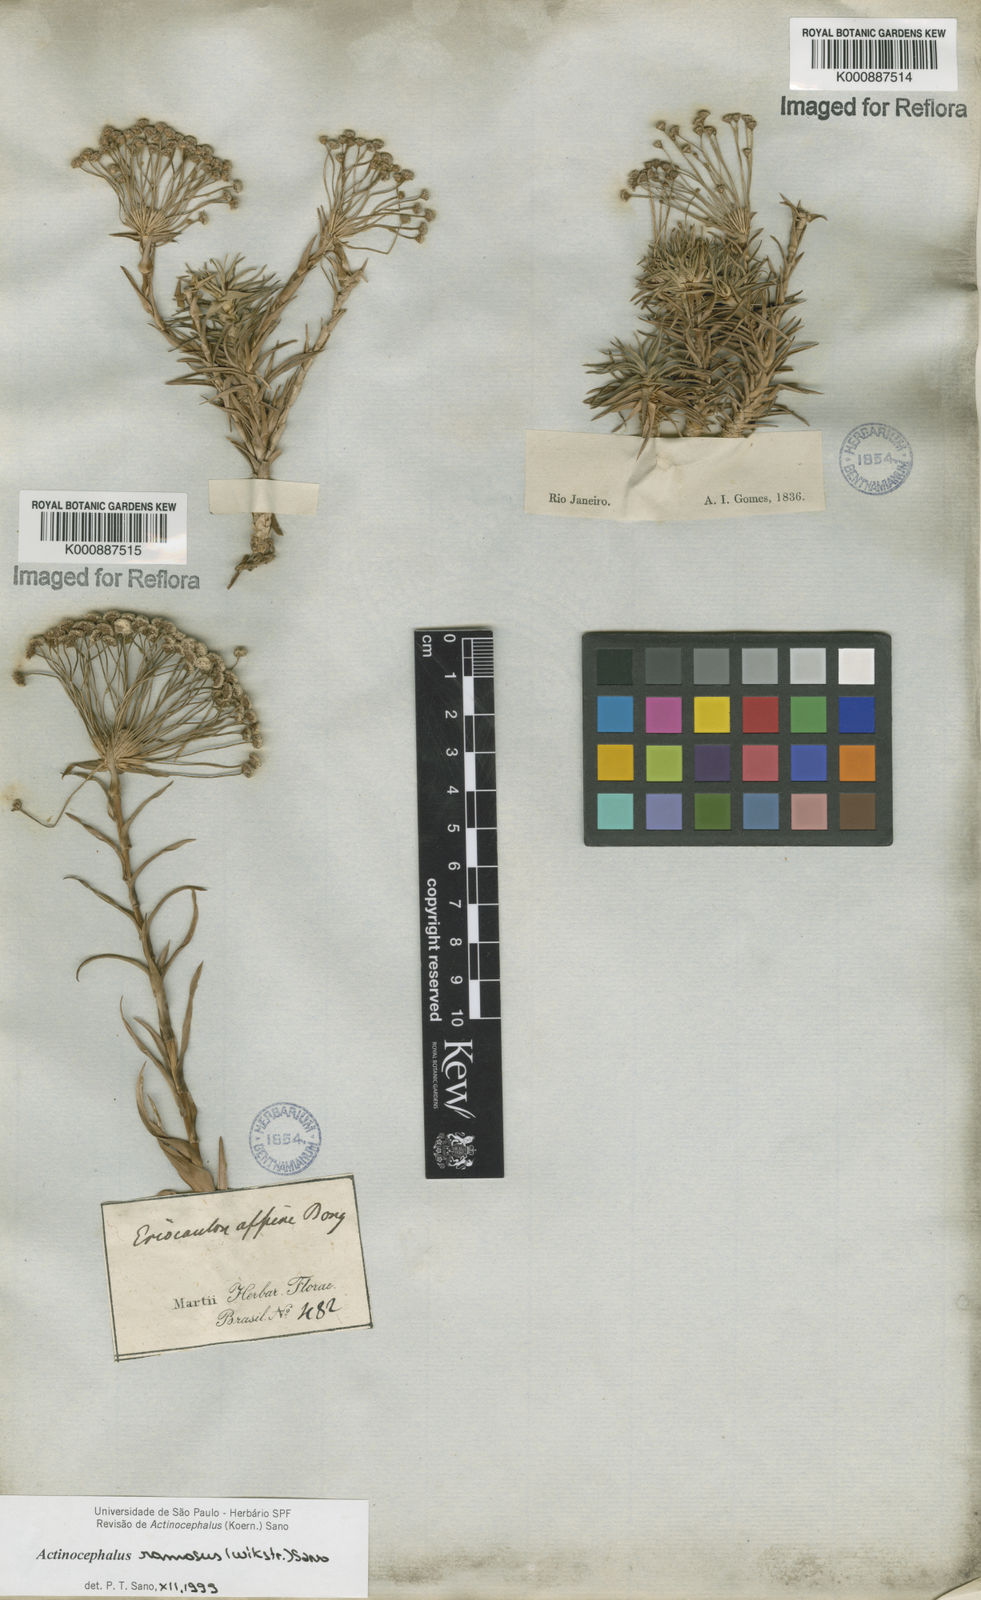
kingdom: Plantae
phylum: Tracheophyta
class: Liliopsida
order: Poales
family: Eriocaulaceae
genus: Paepalanthus
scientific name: Paepalanthus ramosus
